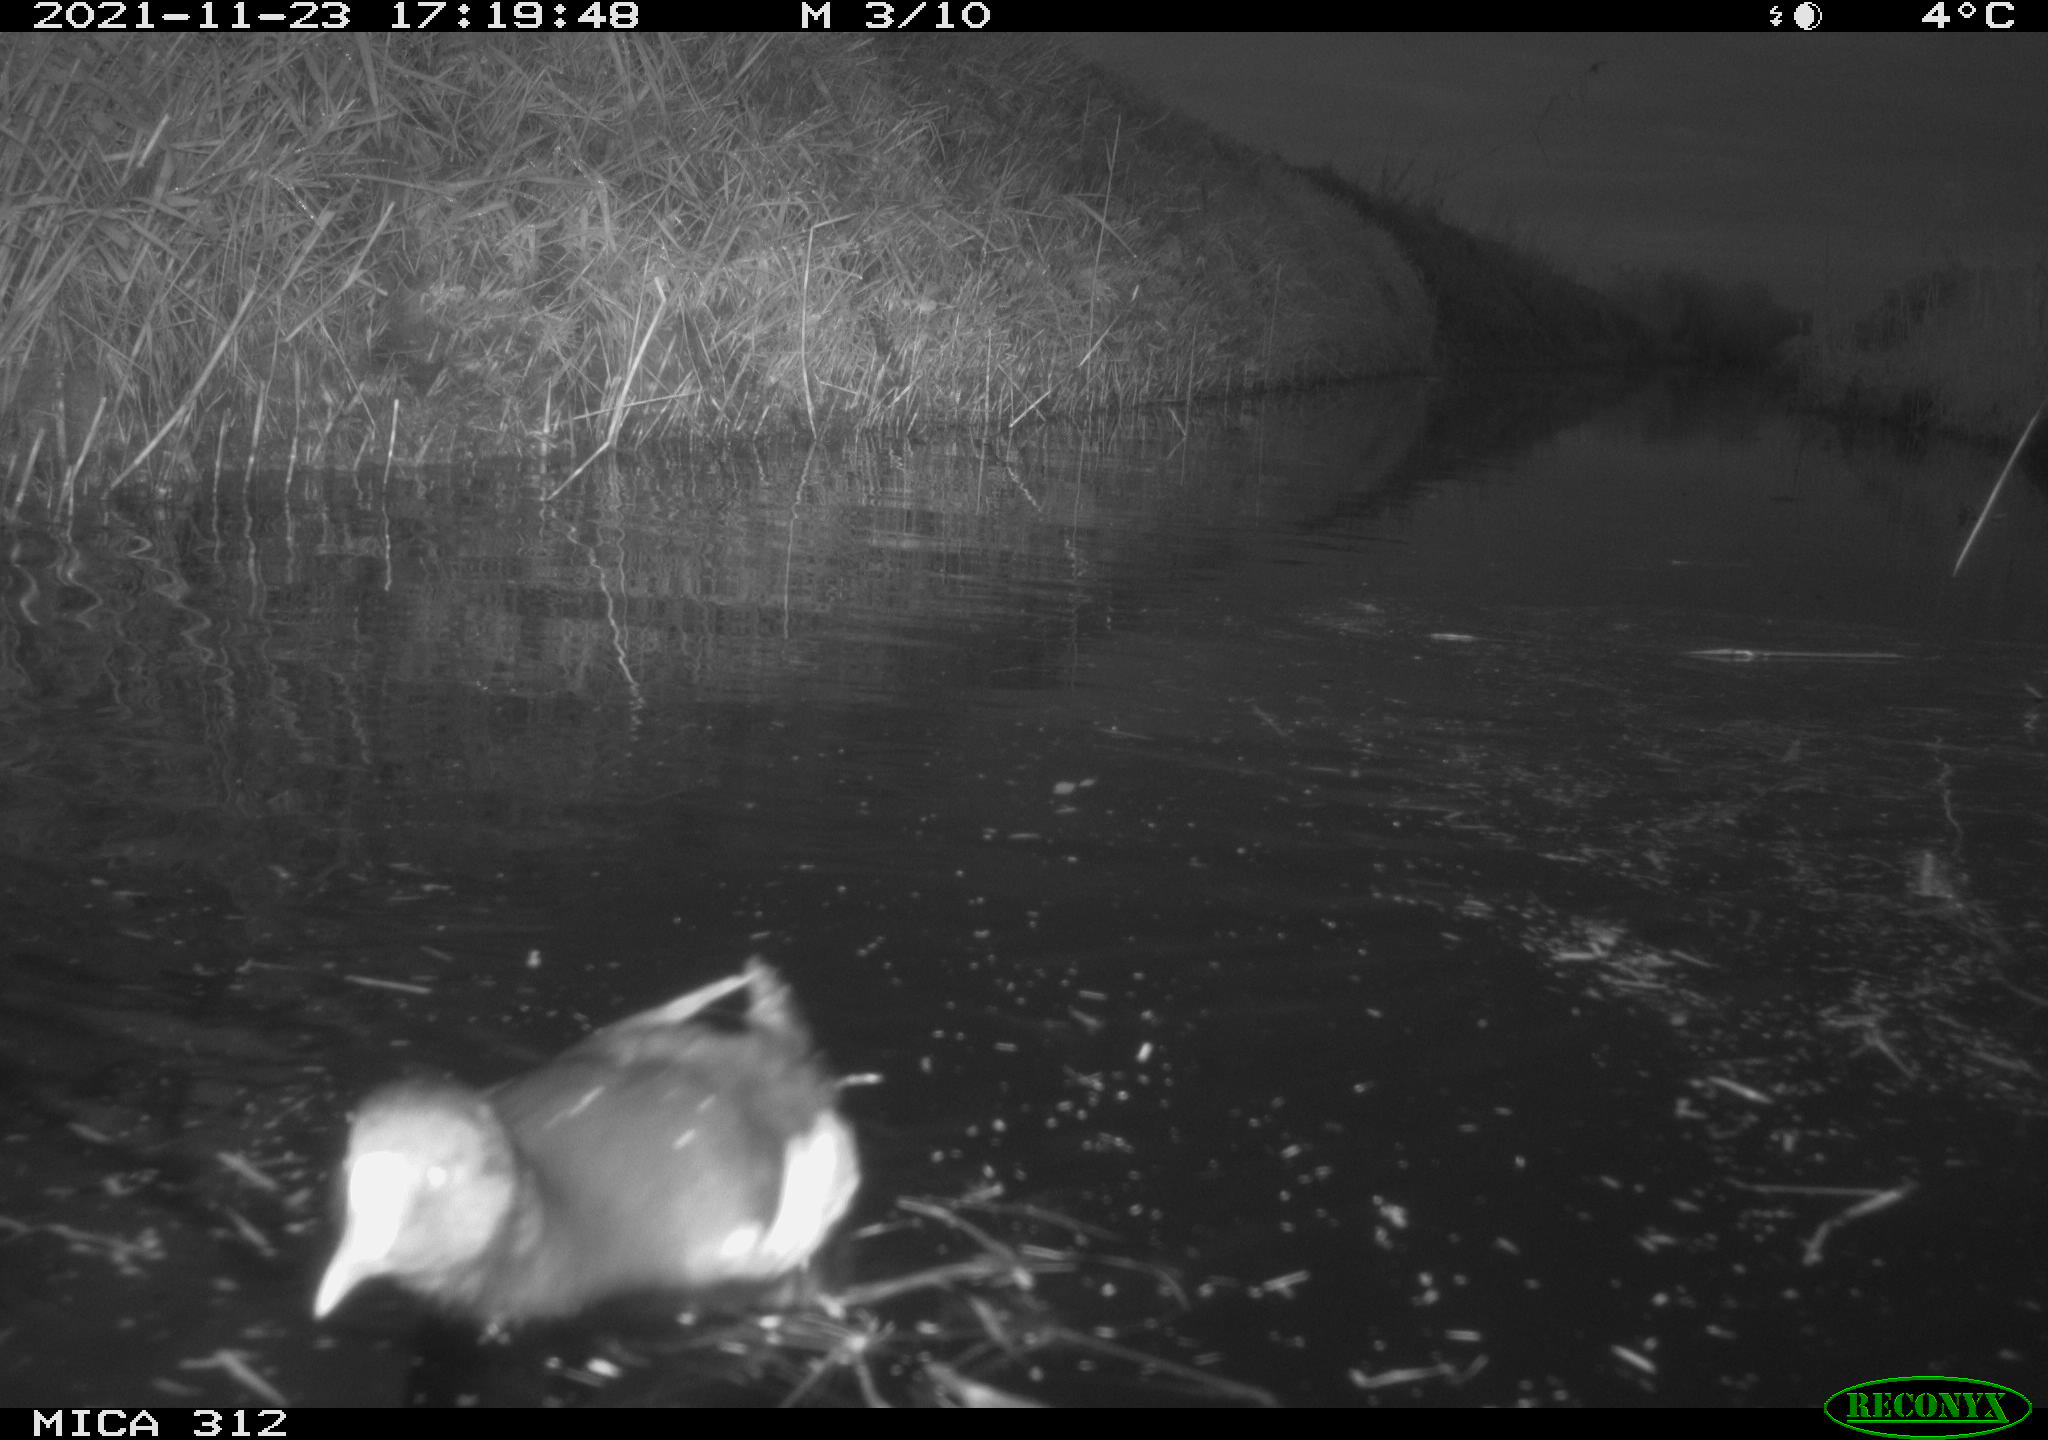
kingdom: Animalia
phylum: Chordata
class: Aves
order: Gruiformes
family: Rallidae
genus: Gallinula
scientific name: Gallinula chloropus
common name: Common moorhen
